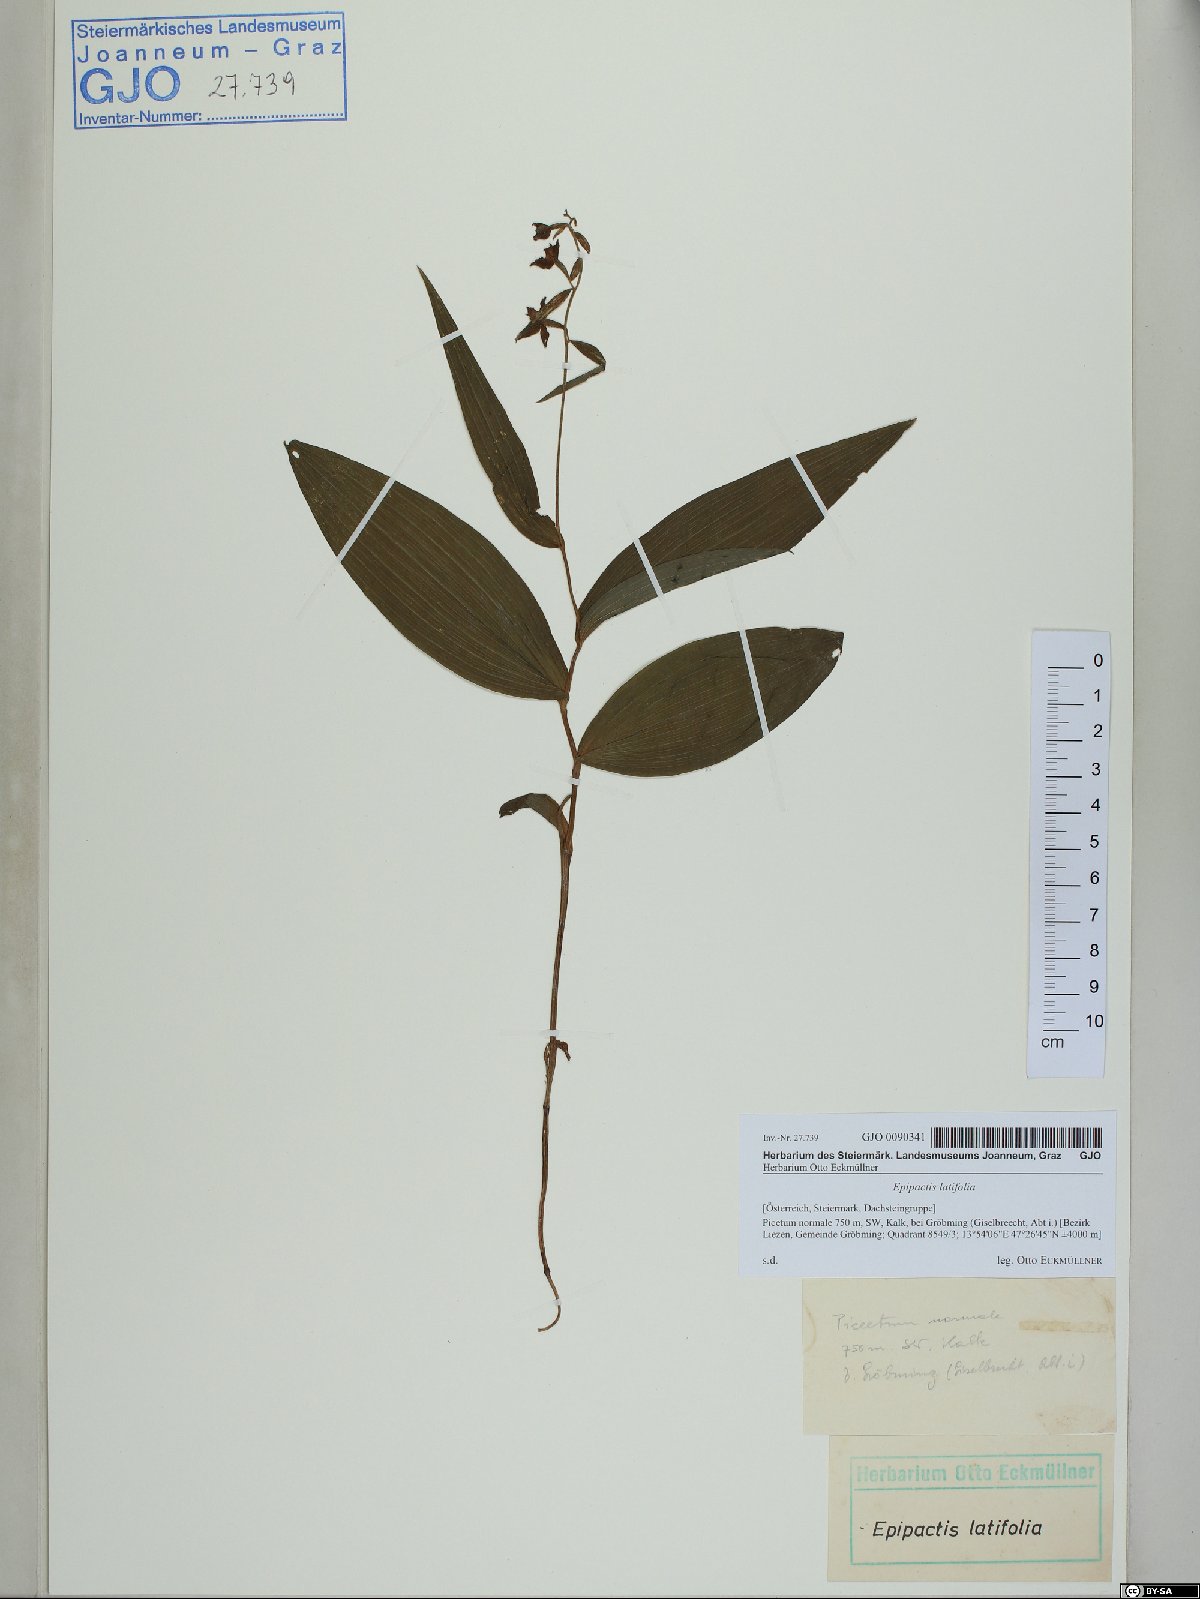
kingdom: Plantae
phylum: Tracheophyta
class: Liliopsida
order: Asparagales
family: Orchidaceae
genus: Epipactis
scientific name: Epipactis helleborine
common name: Broad-leaved helleborine
